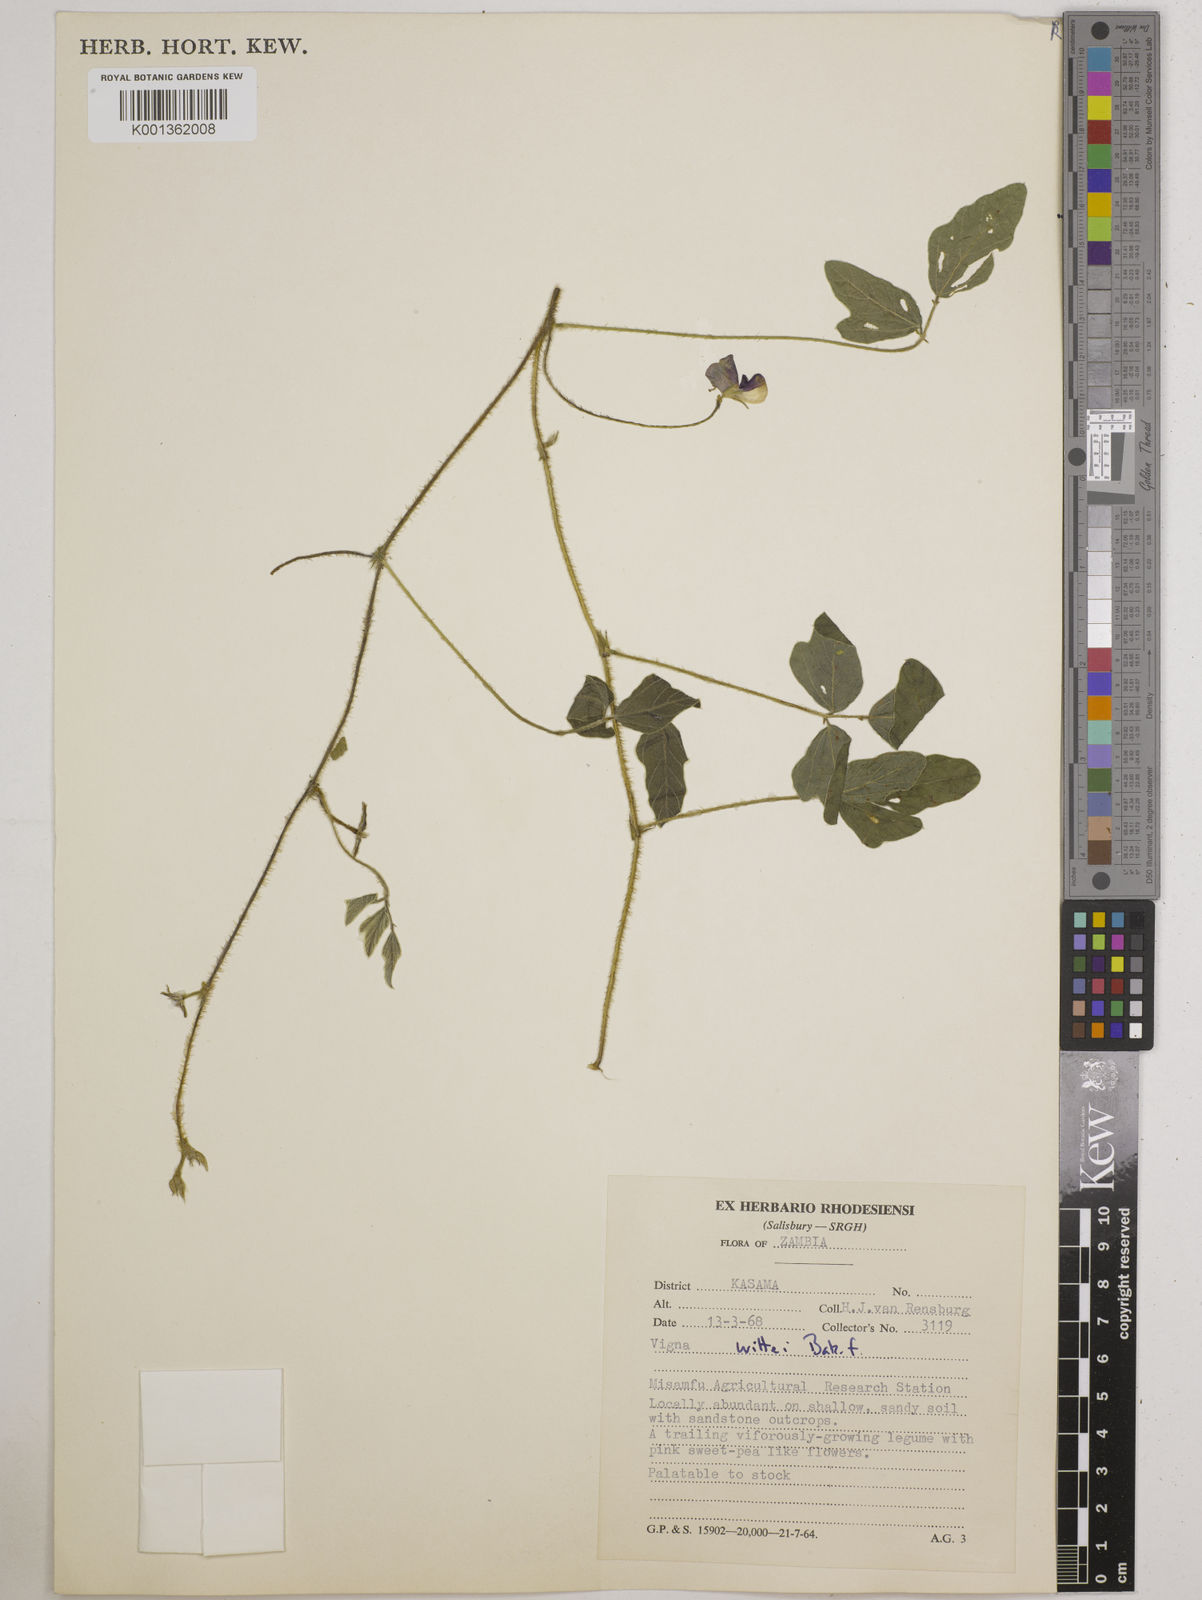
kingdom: Plantae
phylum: Tracheophyta
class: Magnoliopsida
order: Fabales
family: Fabaceae
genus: Vigna
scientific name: Vigna radicans
